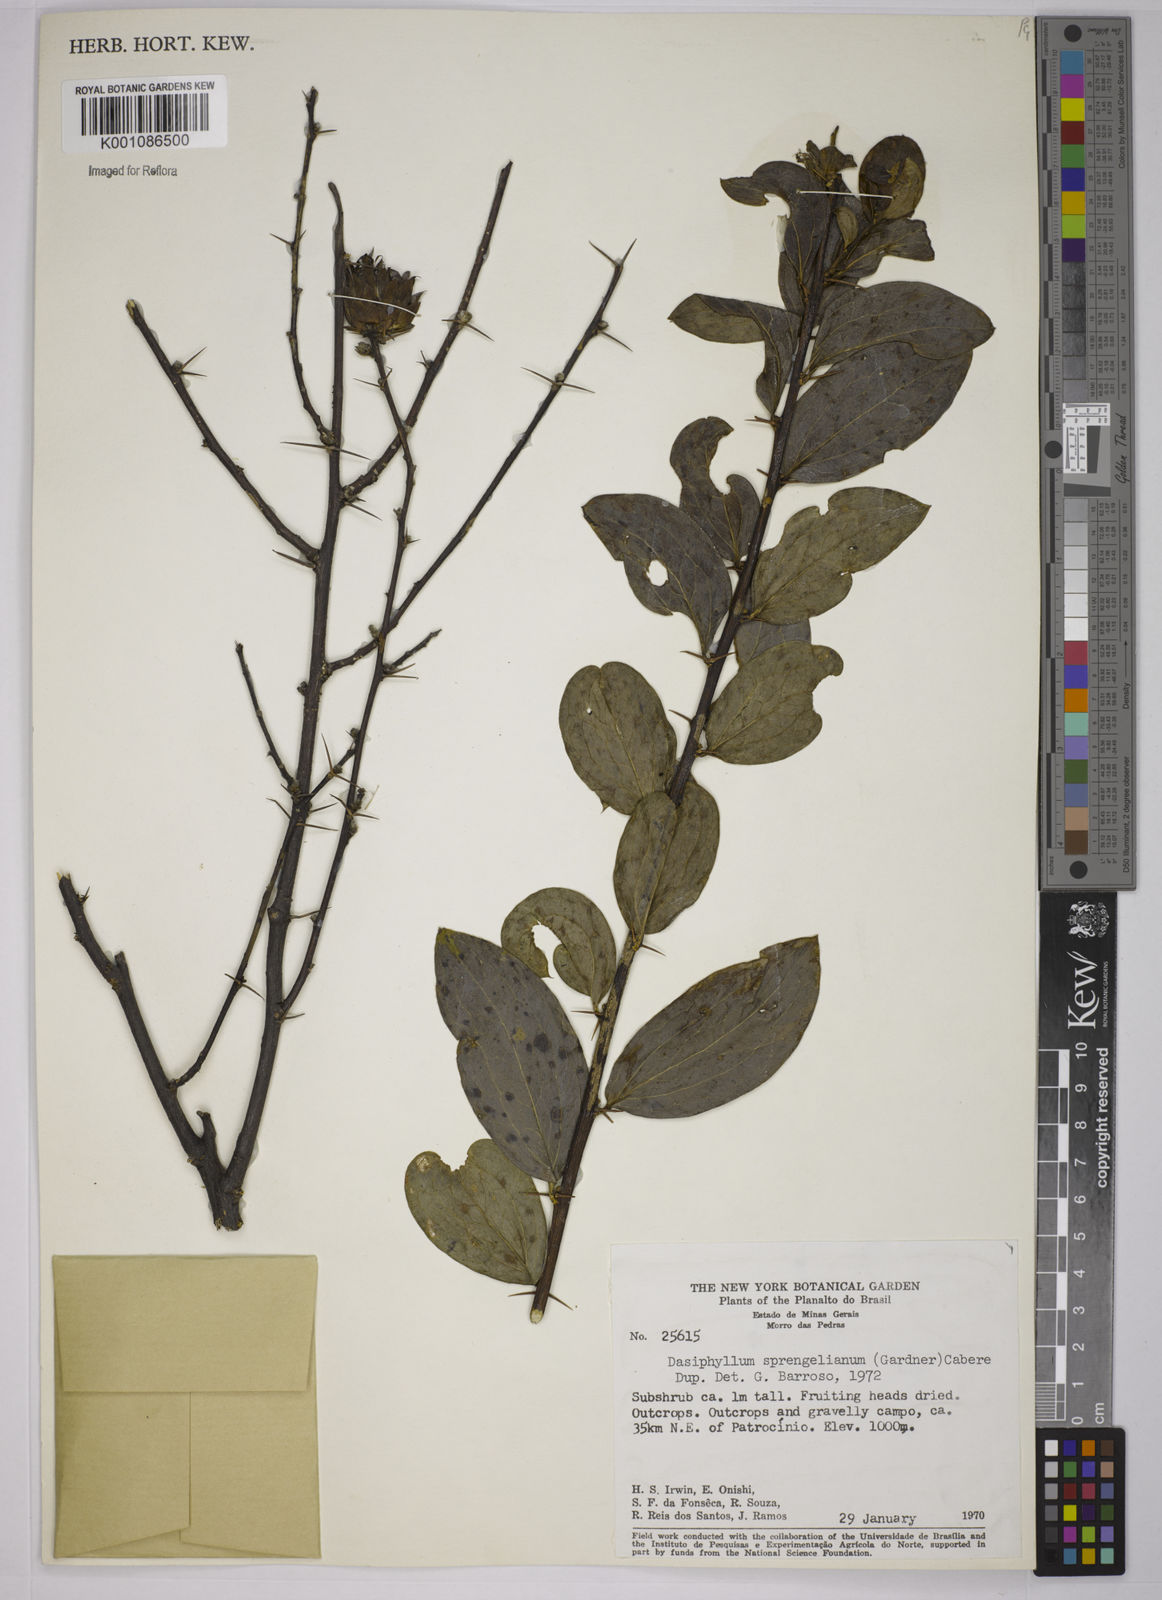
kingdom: Plantae
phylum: Tracheophyta
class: Magnoliopsida
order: Asterales
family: Asteraceae
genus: Dasyphyllum
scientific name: Dasyphyllum sprengelianum
